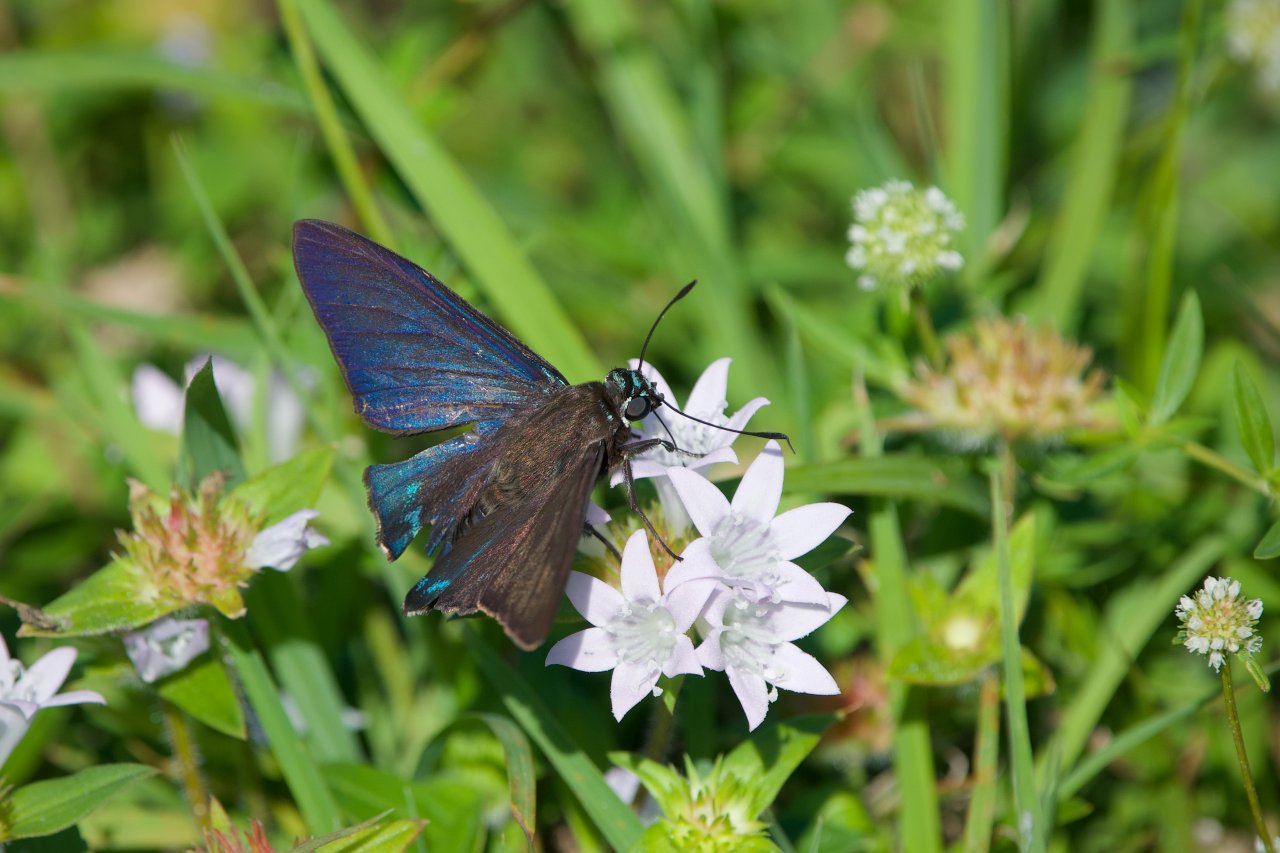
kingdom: Animalia
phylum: Arthropoda
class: Insecta
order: Lepidoptera
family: Hesperiidae
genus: Phocides
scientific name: Phocides pigmalion
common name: Mangrove Skipper
